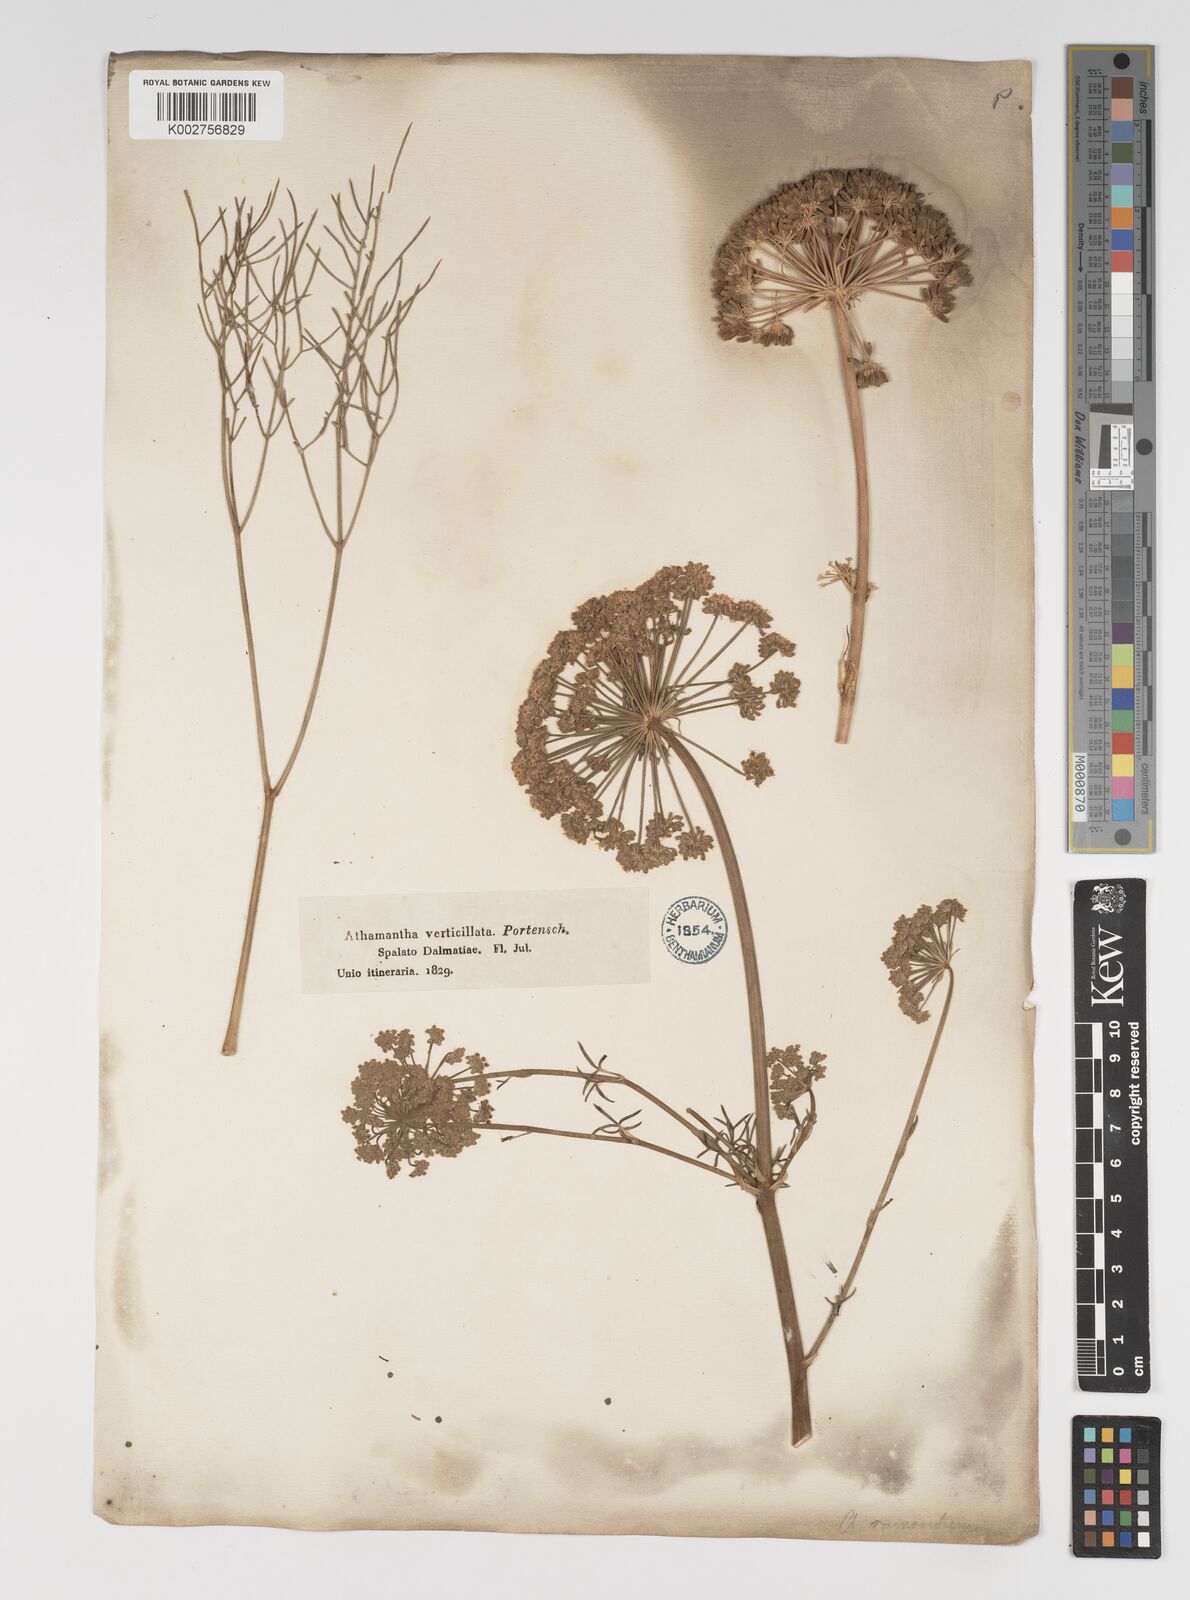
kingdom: Plantae
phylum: Tracheophyta
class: Magnoliopsida
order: Apiales
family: Apiaceae
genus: Athamanta
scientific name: Athamanta ramosissima
